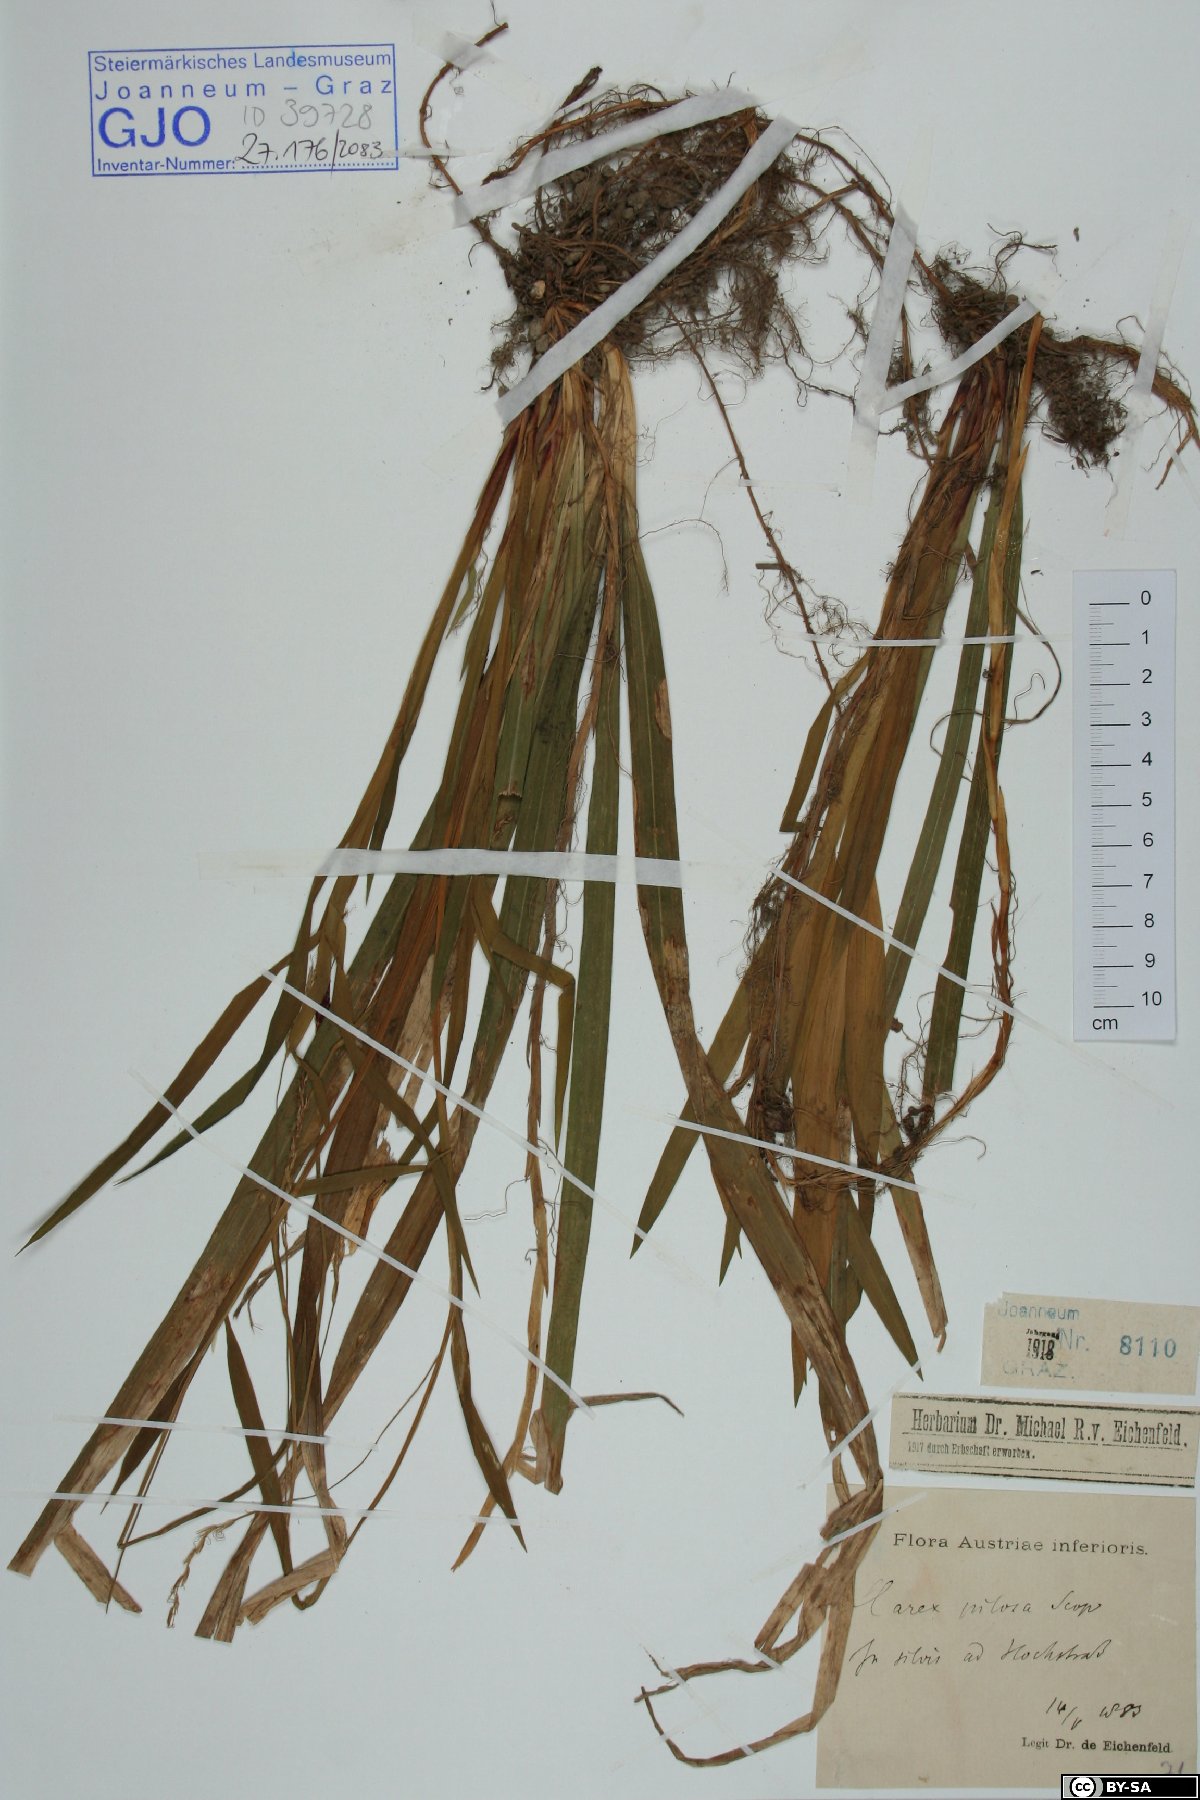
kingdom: Plantae
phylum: Tracheophyta
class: Liliopsida
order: Poales
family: Cyperaceae
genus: Carex
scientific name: Carex pilosa
